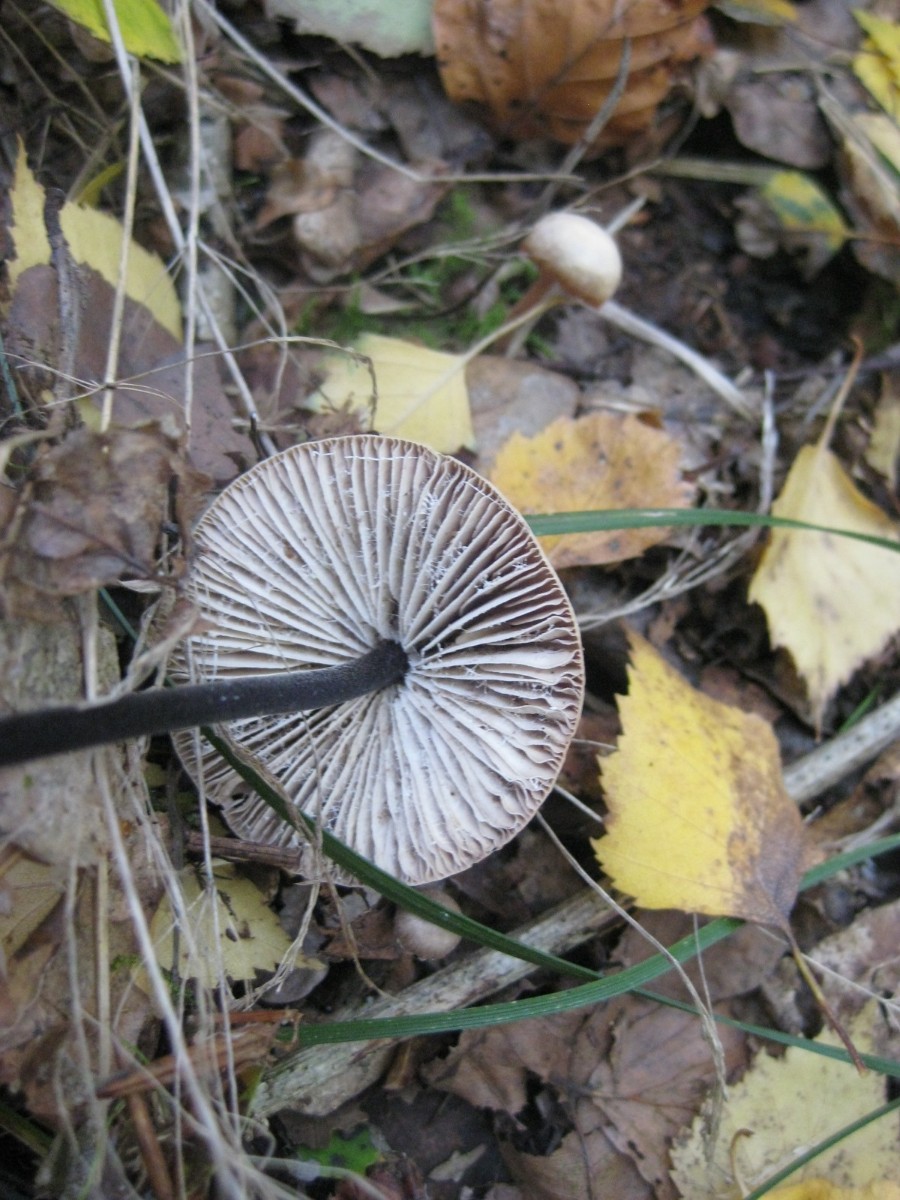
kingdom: Fungi
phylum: Basidiomycota
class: Agaricomycetes
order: Agaricales
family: Omphalotaceae
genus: Mycetinis
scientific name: Mycetinis alliaceus
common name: stor løghat
